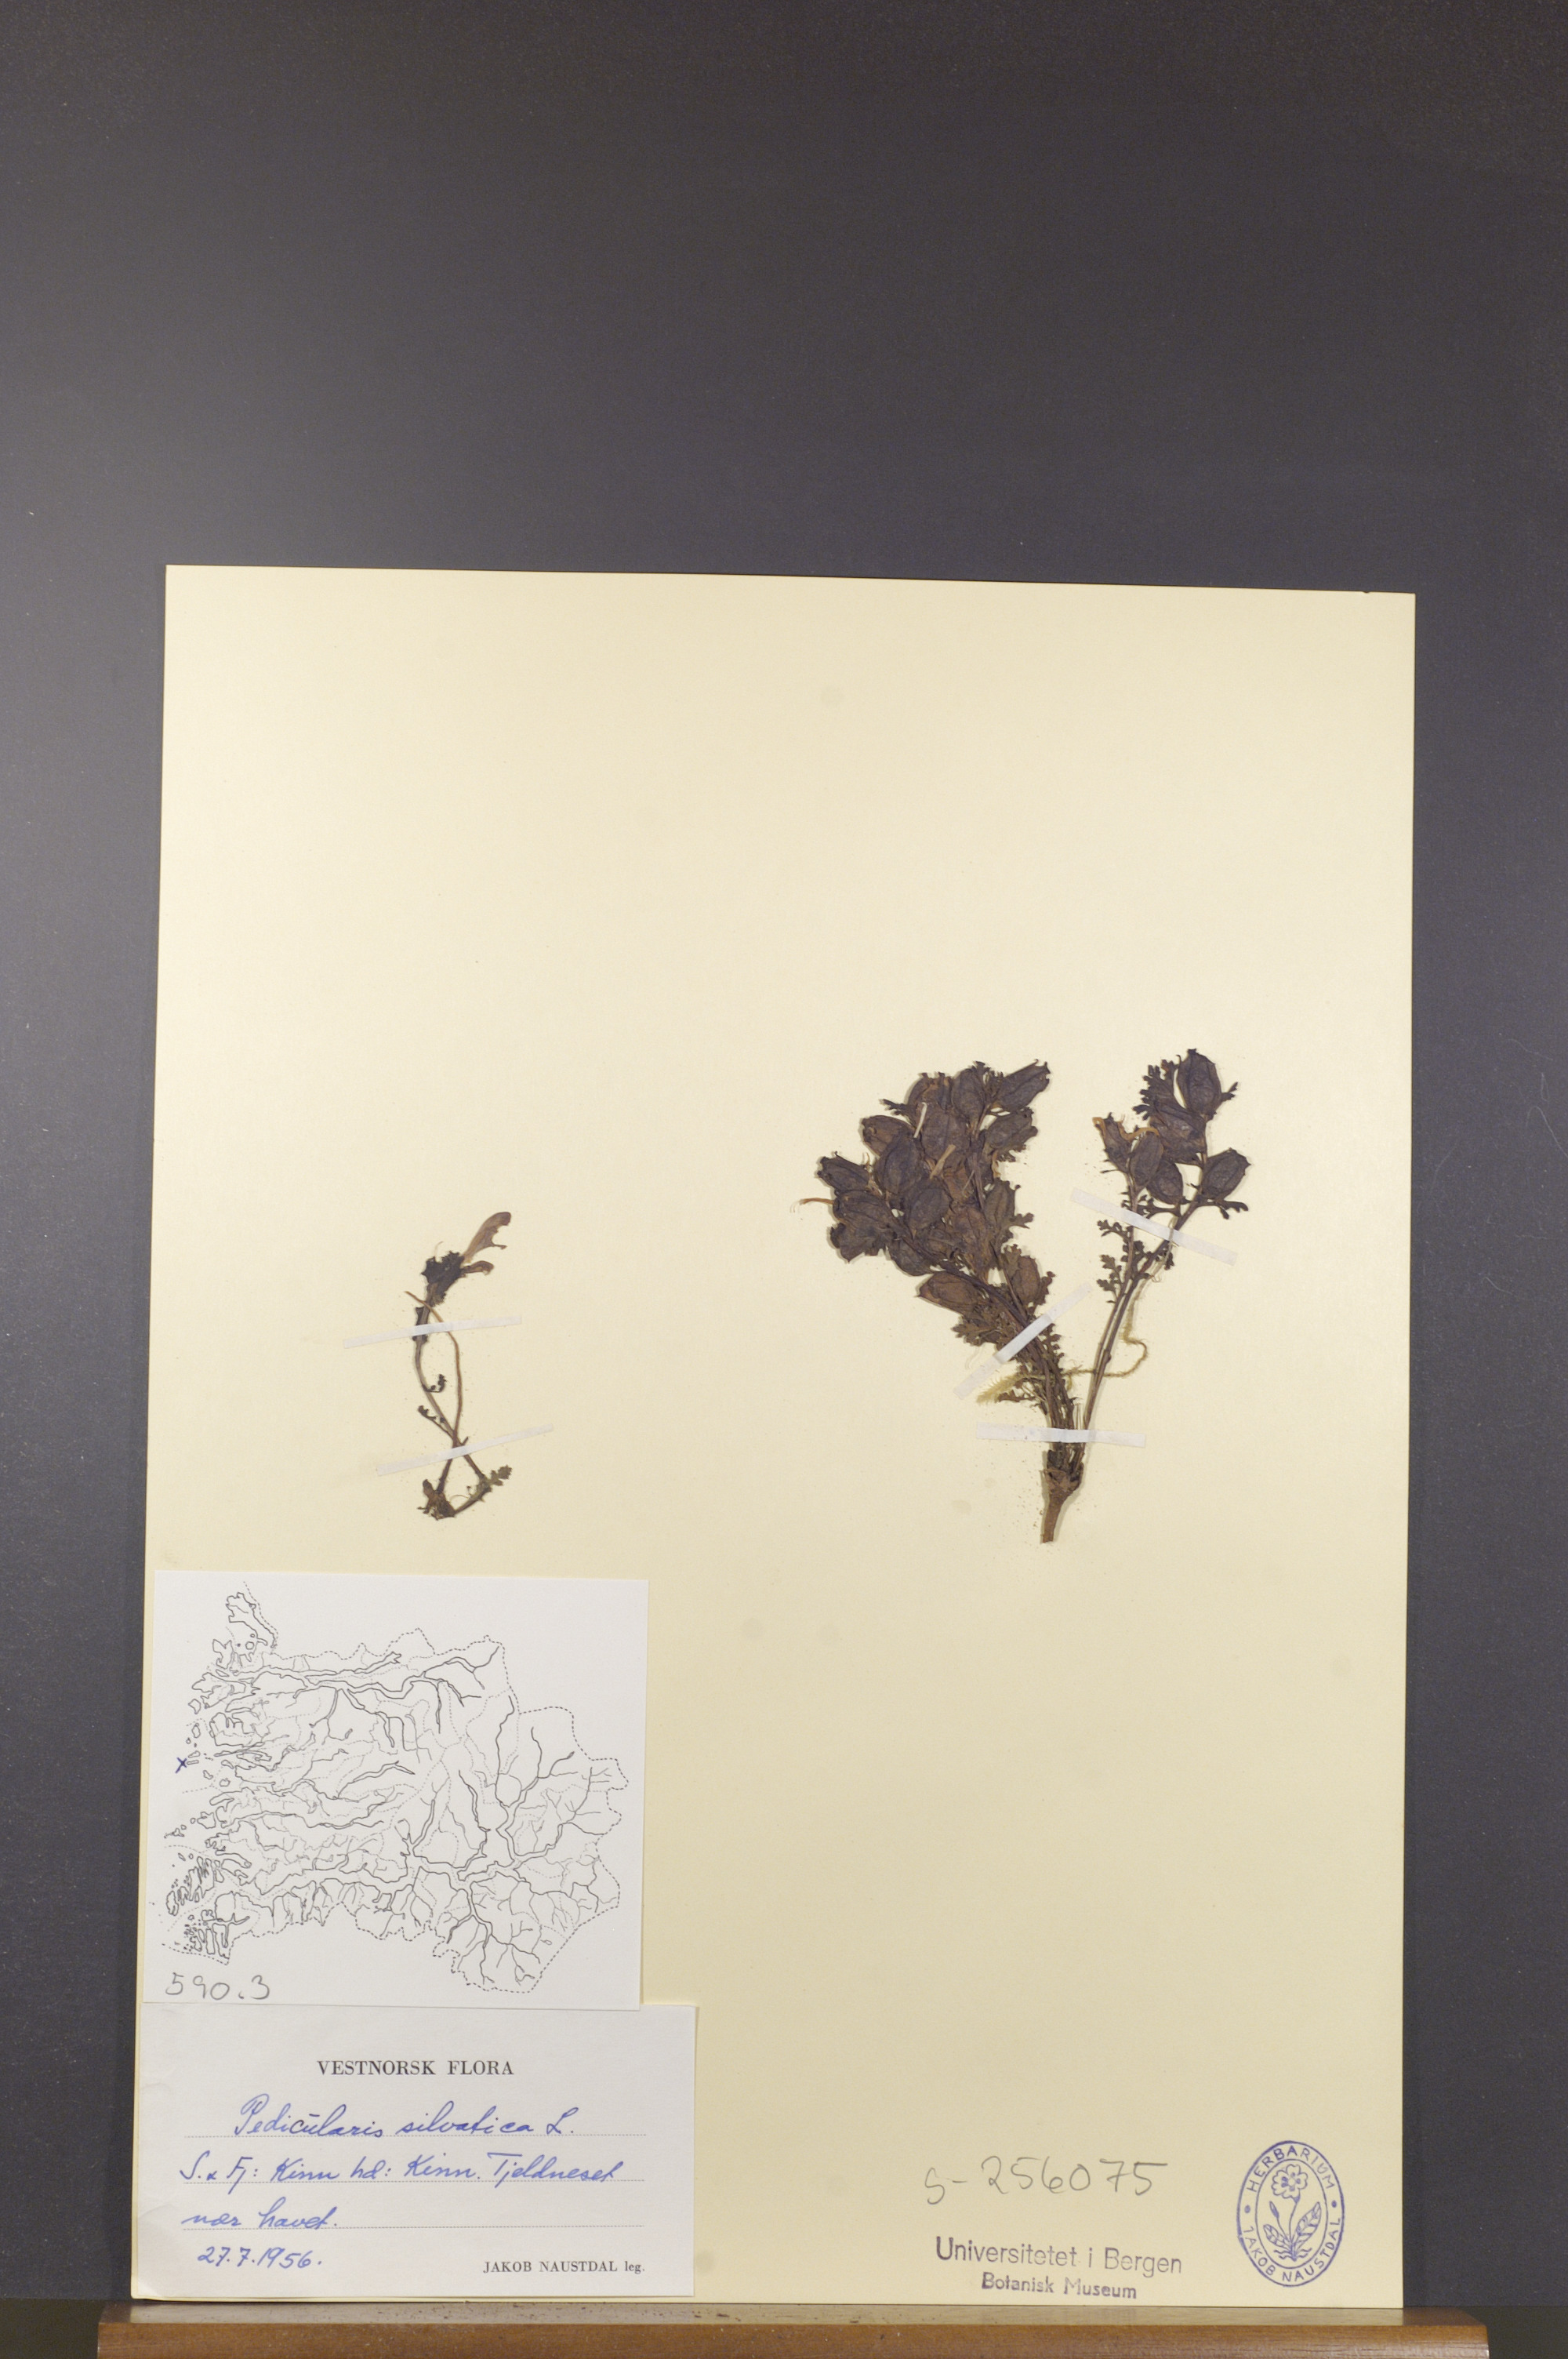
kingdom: Plantae
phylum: Tracheophyta
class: Magnoliopsida
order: Lamiales
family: Orobanchaceae
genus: Pedicularis
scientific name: Pedicularis sylvatica
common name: Lousewort
